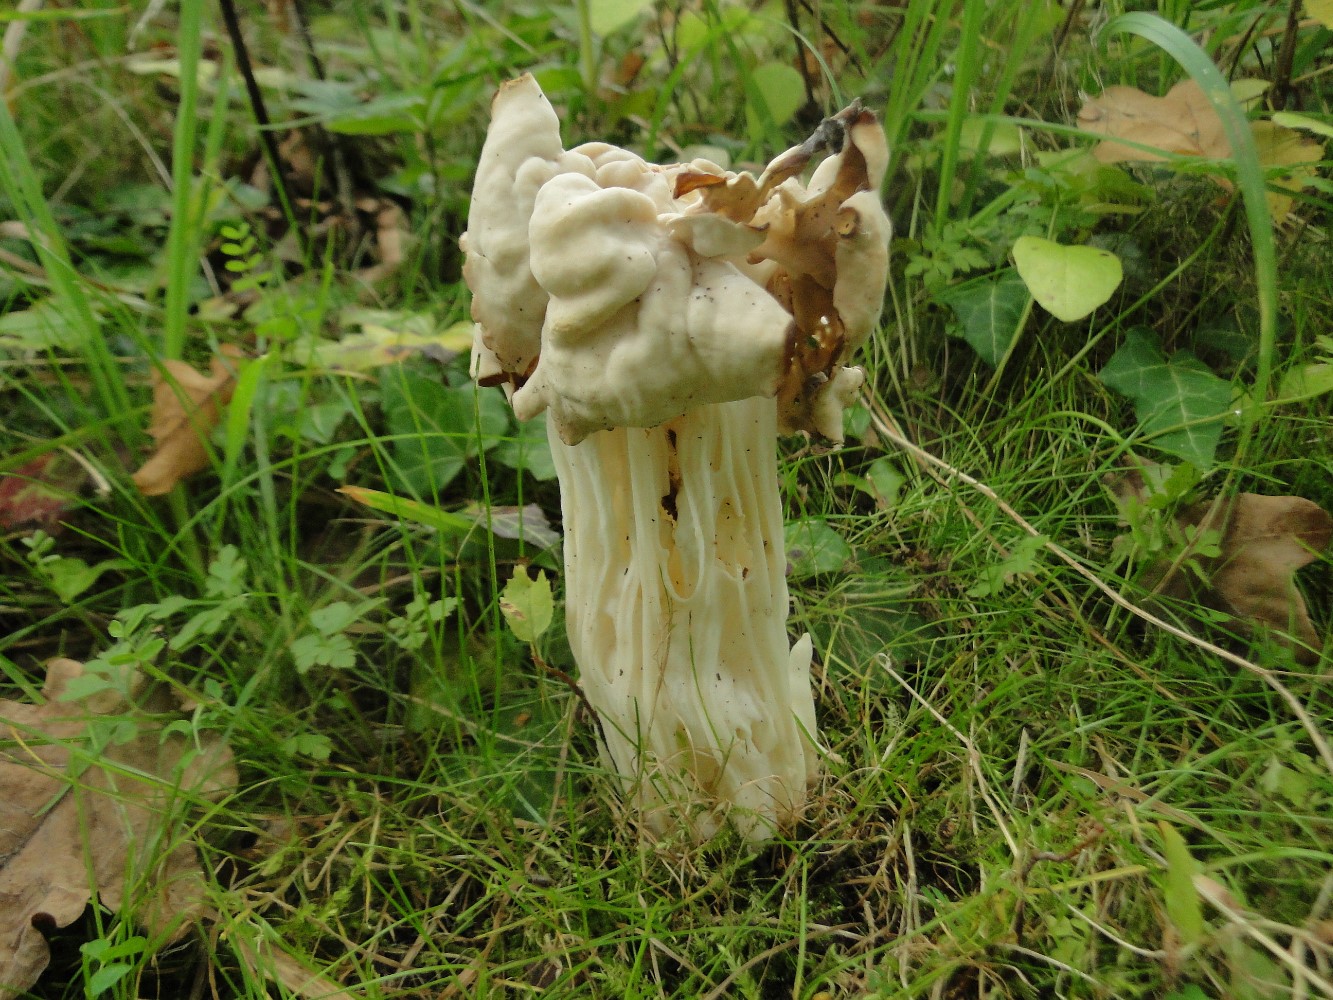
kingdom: Fungi
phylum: Ascomycota
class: Pezizomycetes
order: Pezizales
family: Helvellaceae
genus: Helvella
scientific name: Helvella crispa
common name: kruset foldhat
